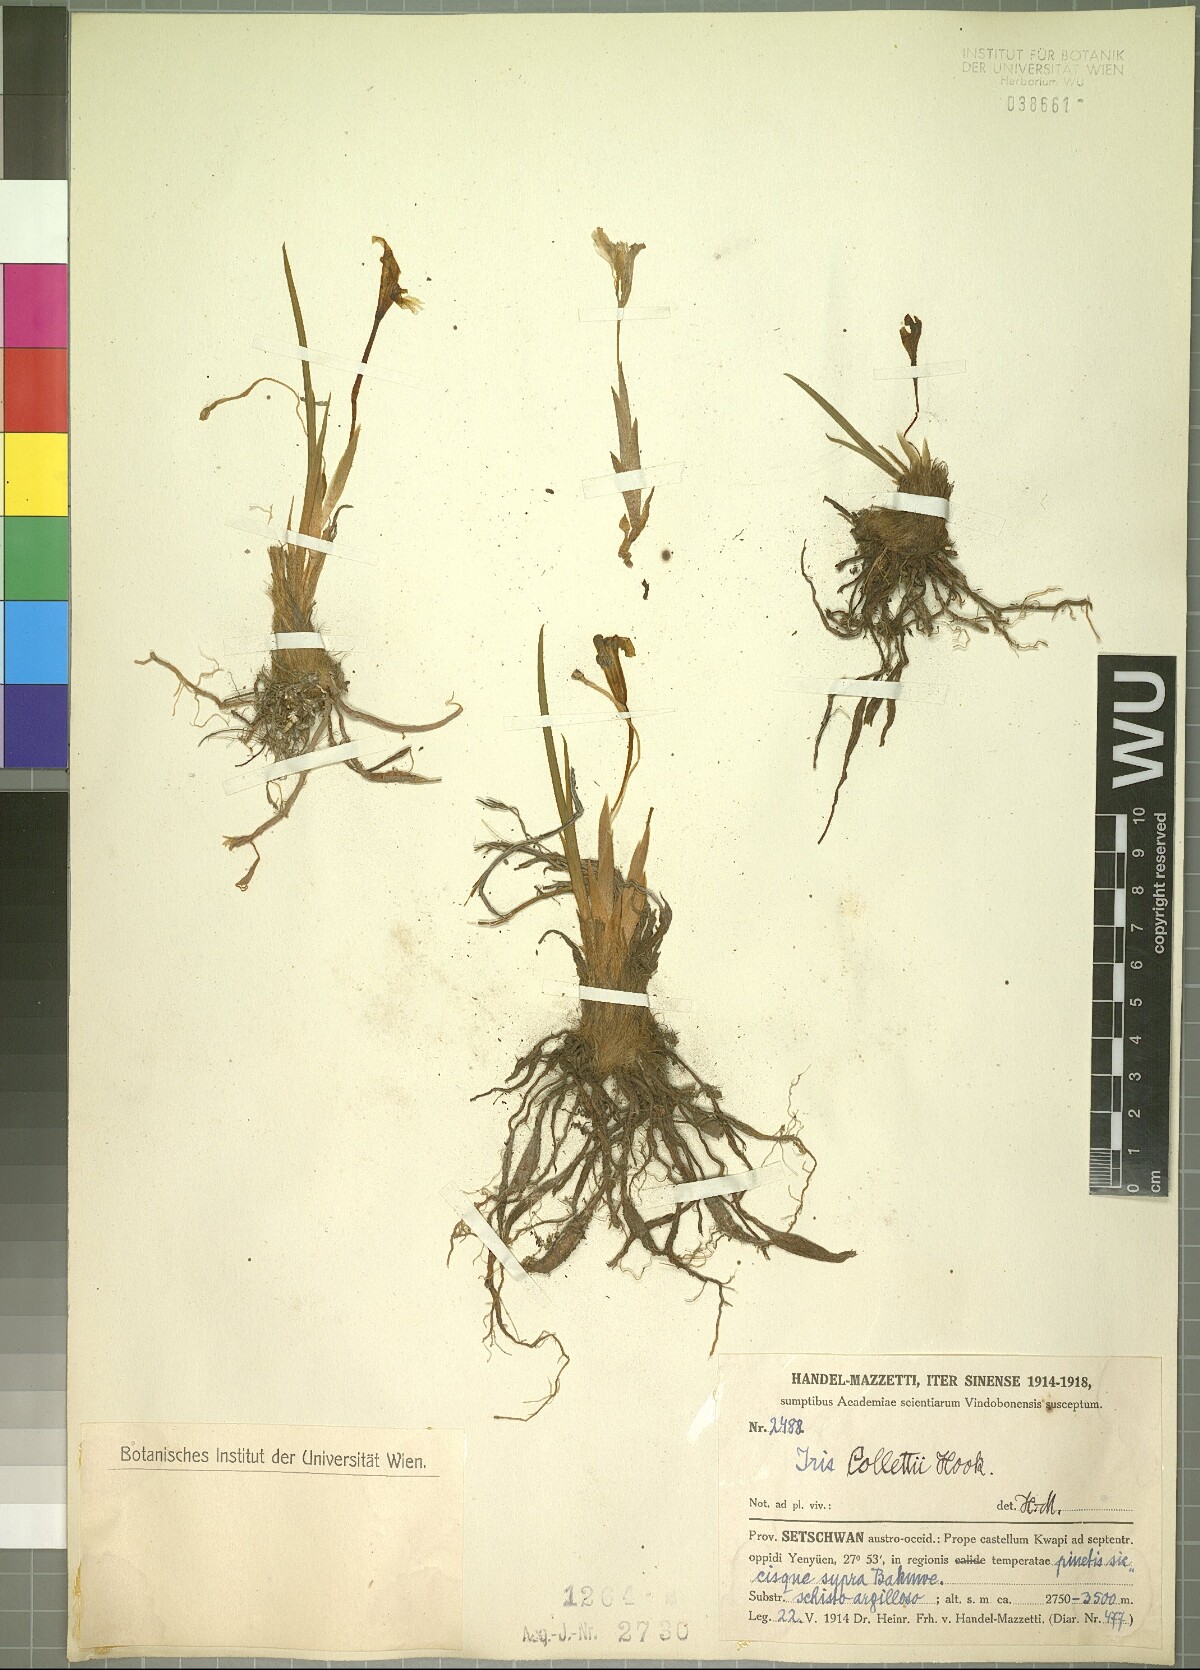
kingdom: Plantae
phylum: Tracheophyta
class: Liliopsida
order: Asparagales
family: Iridaceae
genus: Iris
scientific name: Iris collettii
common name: Plateau iris
